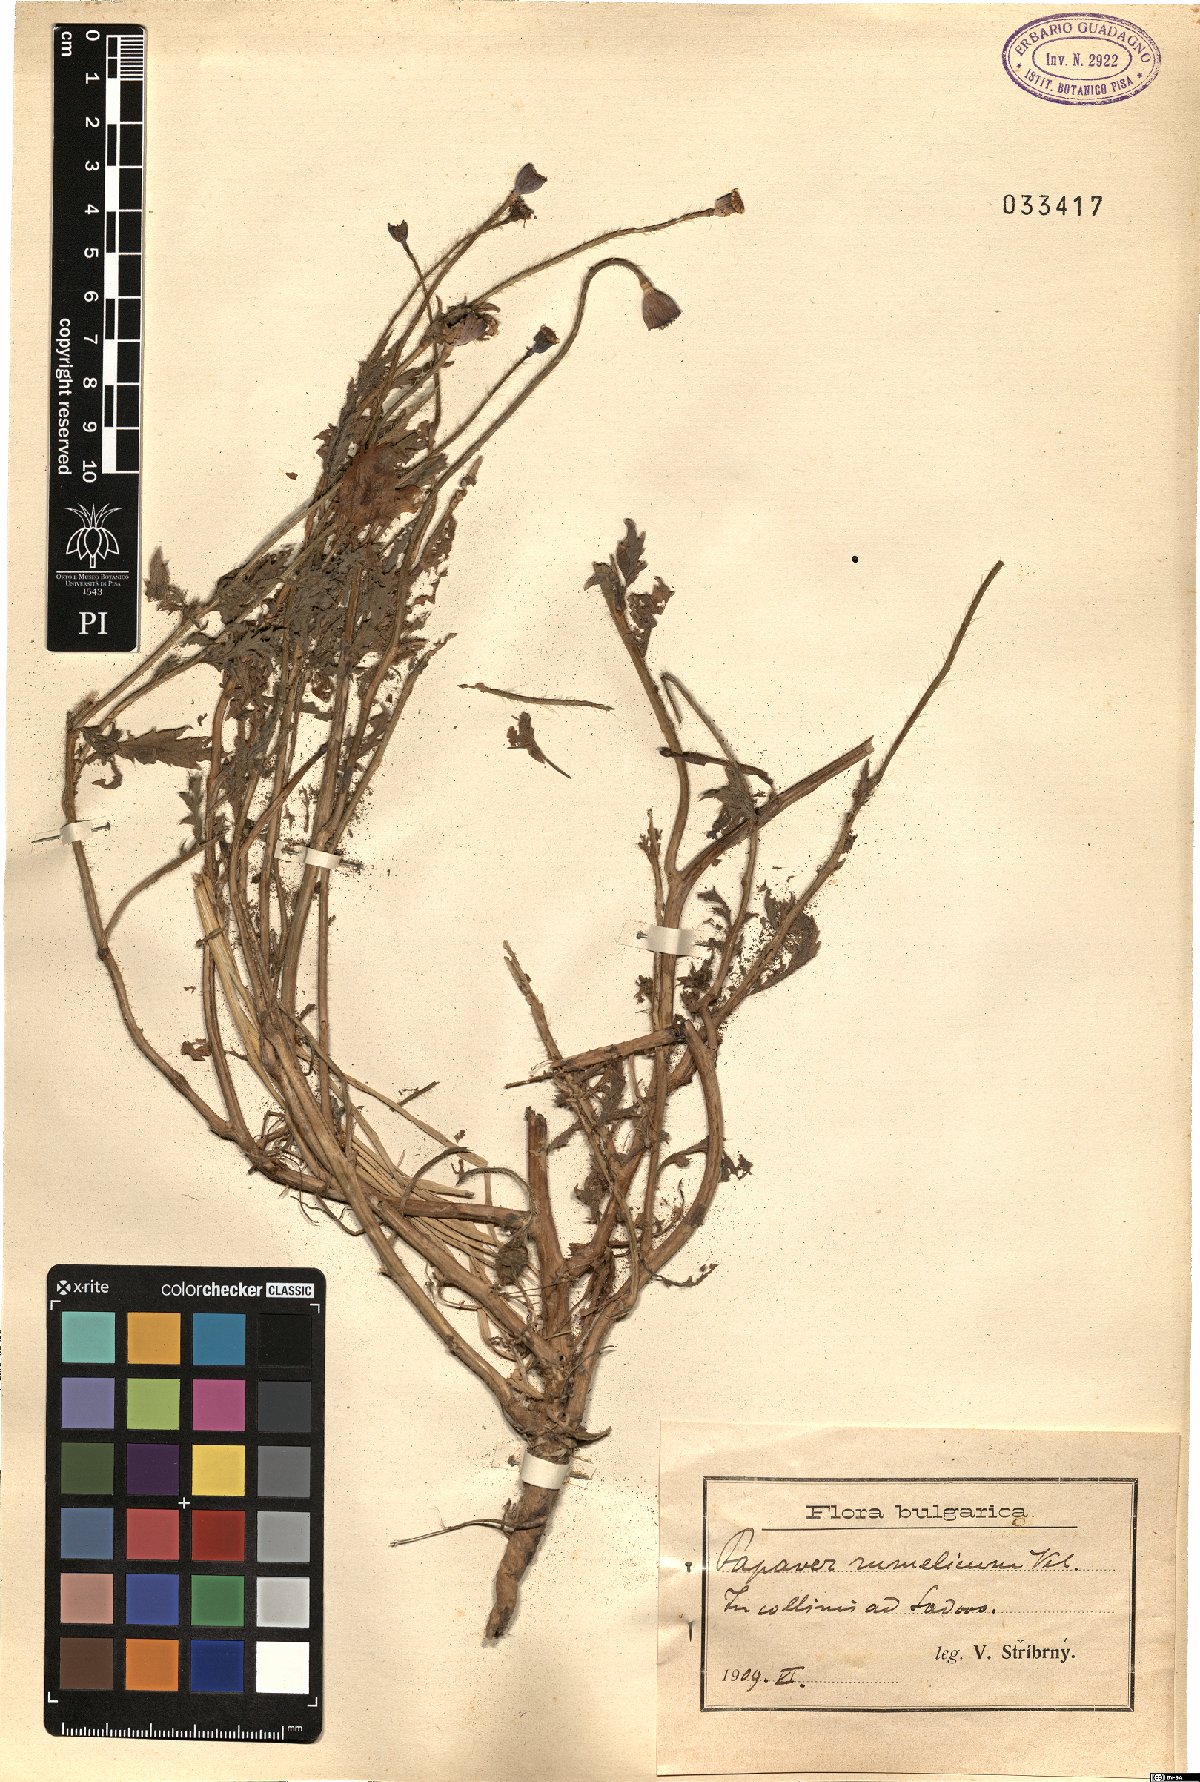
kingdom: Plantae
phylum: Tracheophyta
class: Magnoliopsida
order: Ranunculales
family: Papaveraceae
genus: Papaver
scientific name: Papaver rhoeas
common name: Corn poppy
